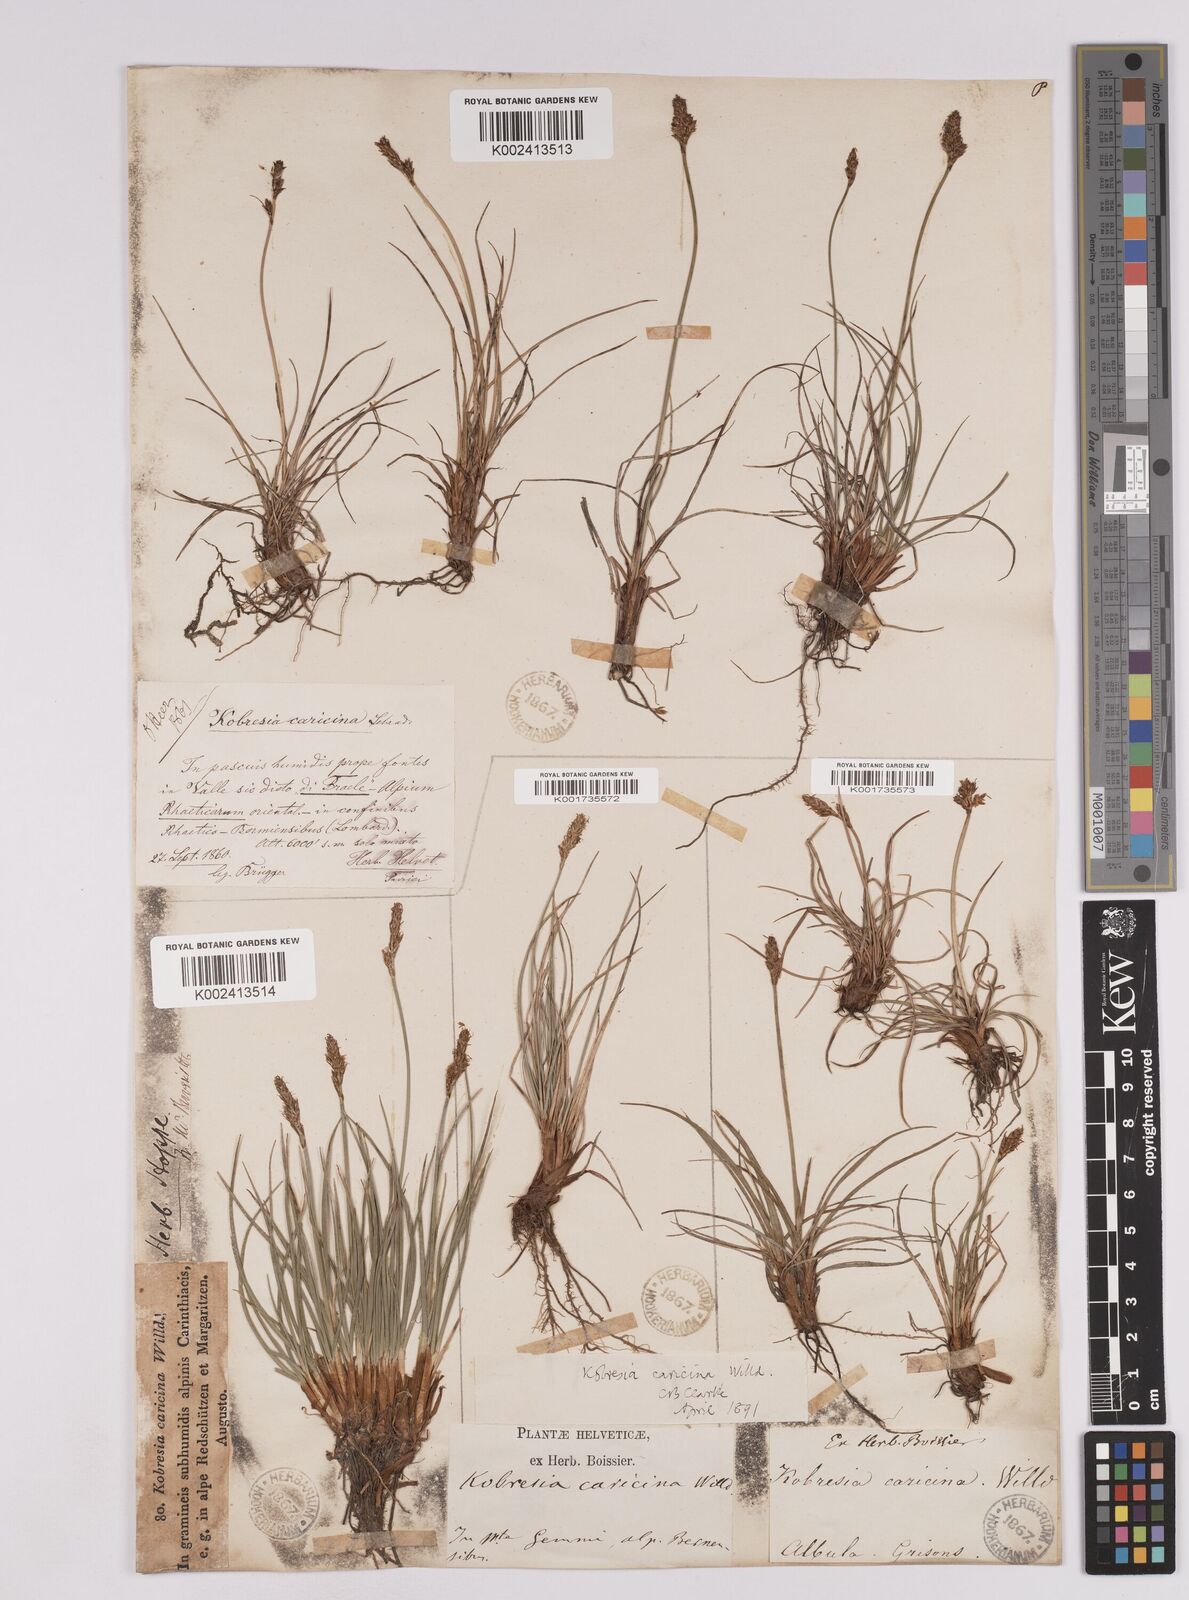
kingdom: Plantae
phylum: Tracheophyta
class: Liliopsida
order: Poales
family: Cyperaceae
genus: Carex
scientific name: Carex simpliciuscula
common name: Simple bog sedge
